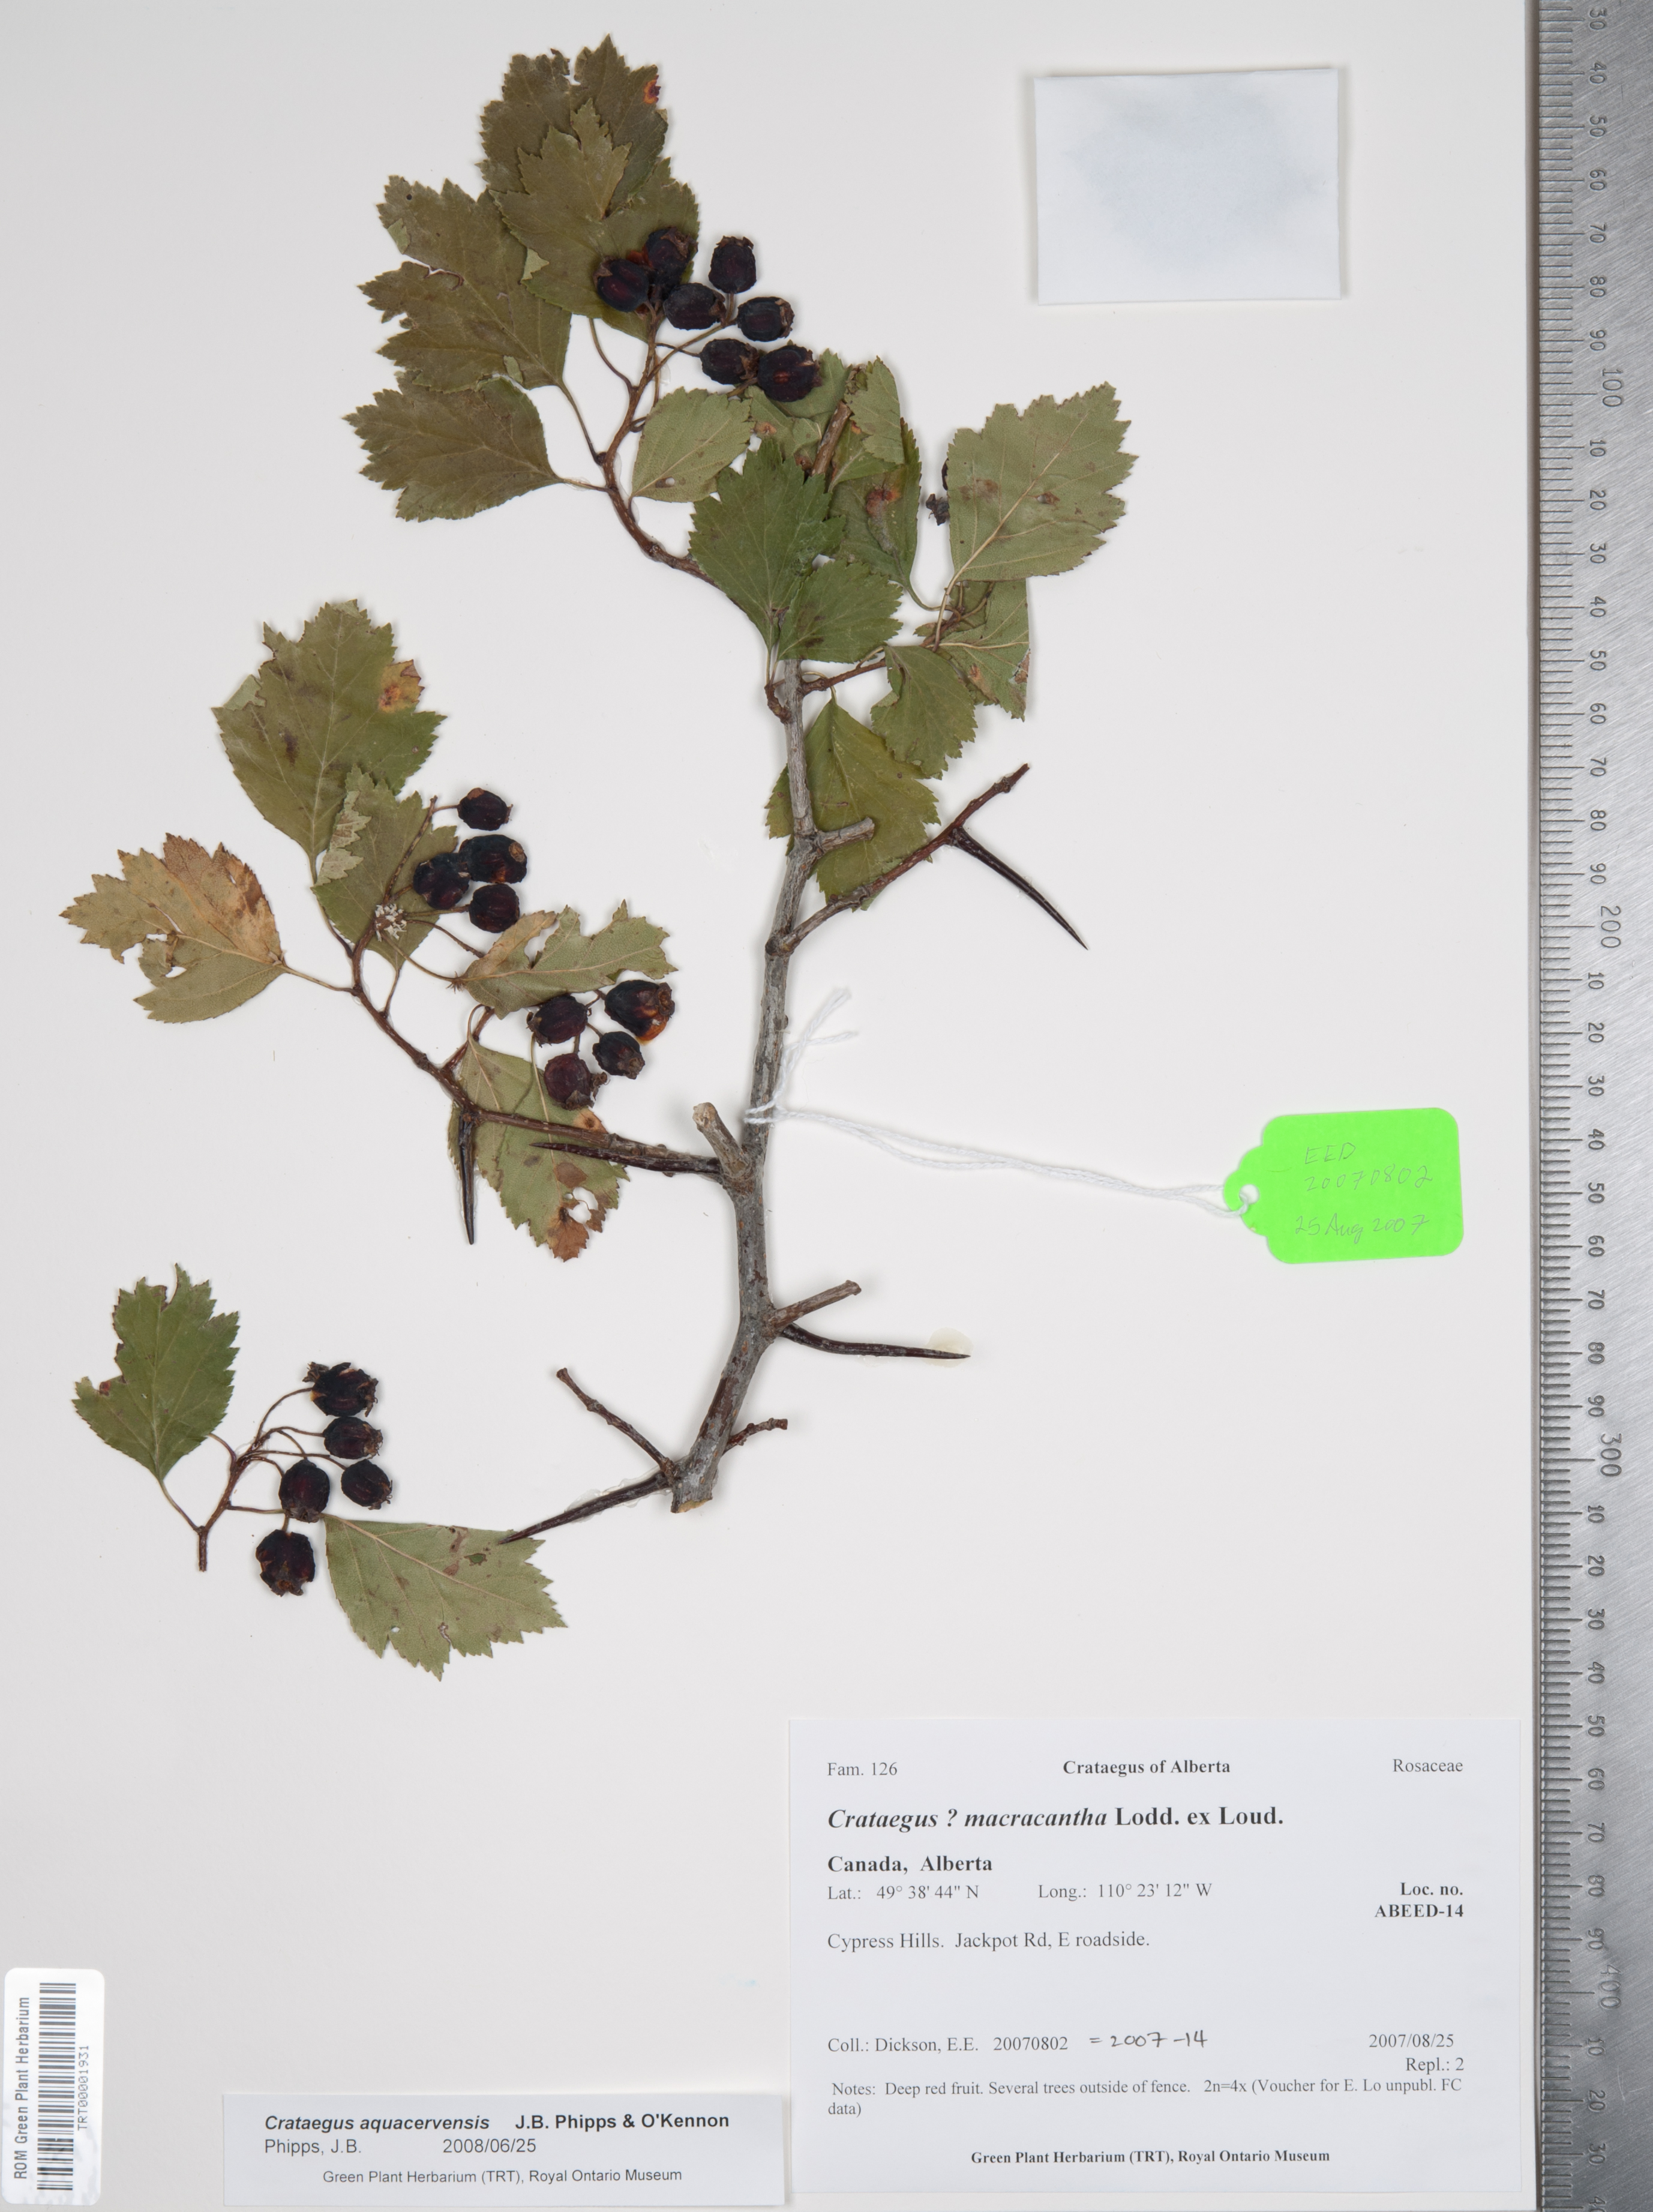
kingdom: Plantae
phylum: Tracheophyta
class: Magnoliopsida
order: Rosales
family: Rosaceae
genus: Crataegus
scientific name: Crataegus aquacervensis
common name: Elkwater hawthorn
